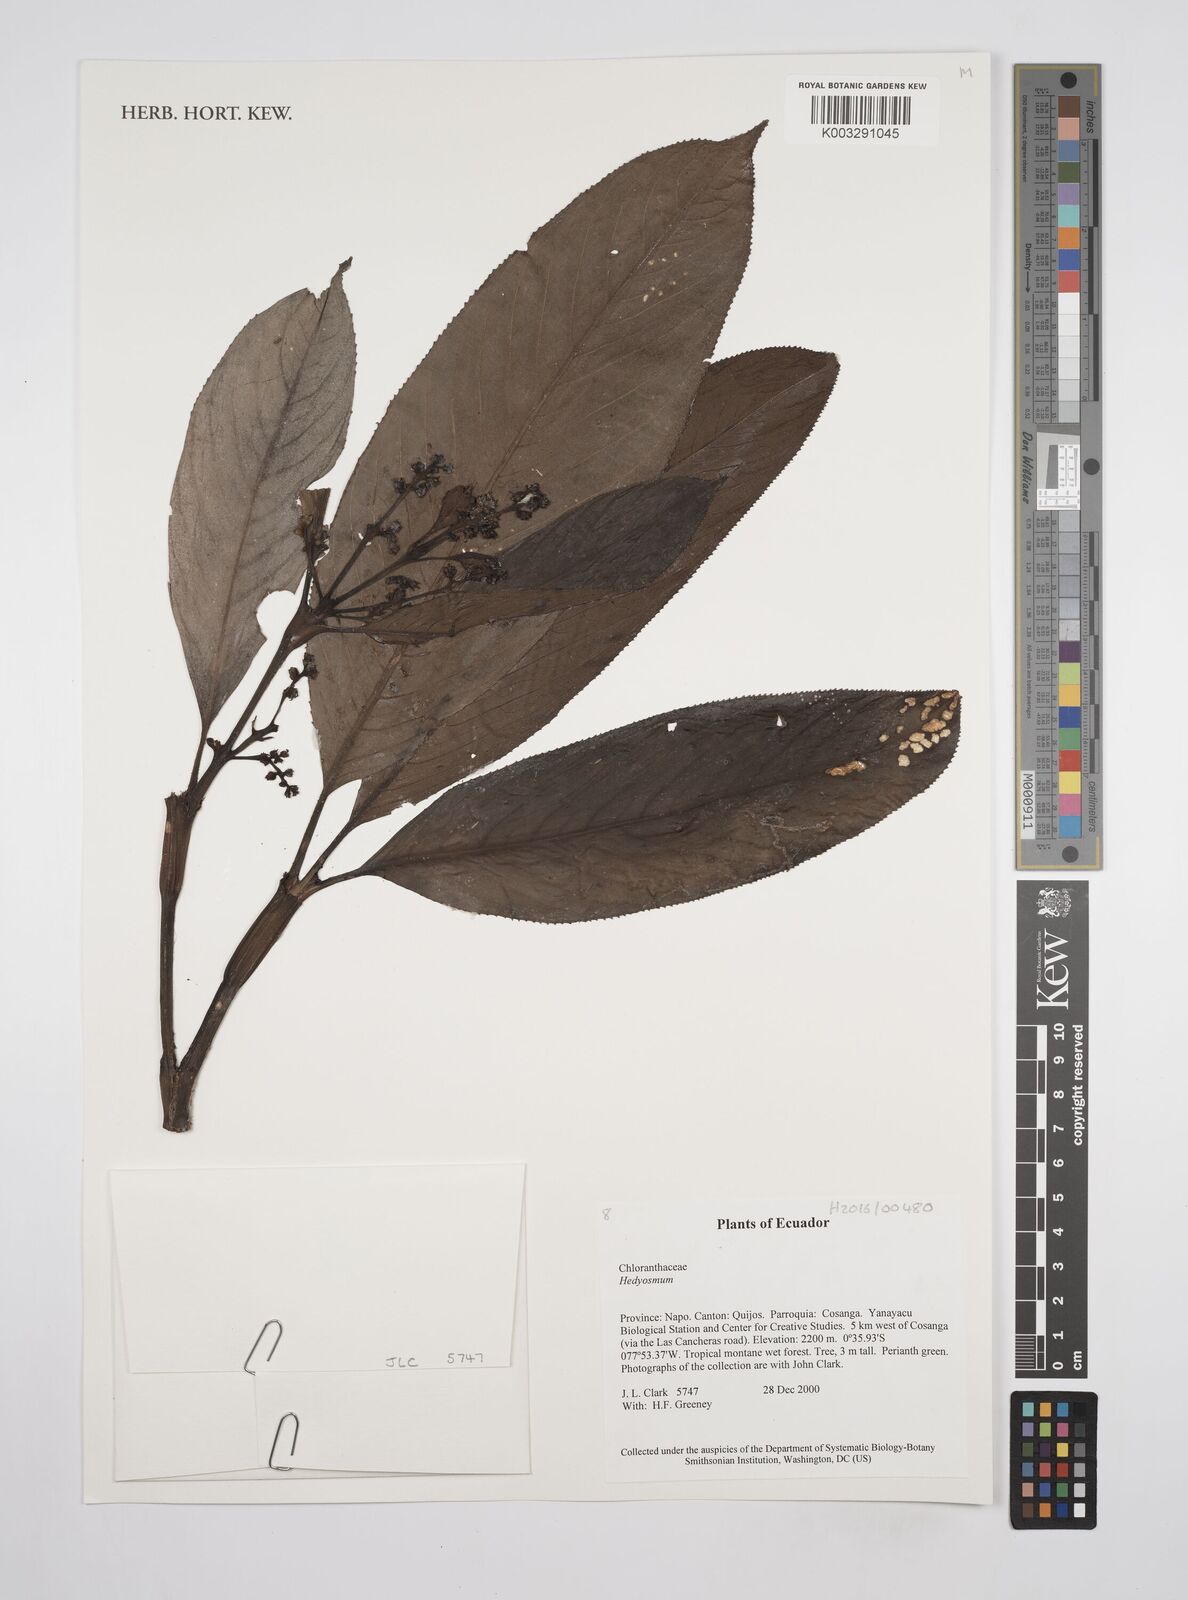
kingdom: Plantae
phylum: Tracheophyta
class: Magnoliopsida
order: Chloranthales
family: Chloranthaceae
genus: Hedyosmum
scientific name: Hedyosmum
